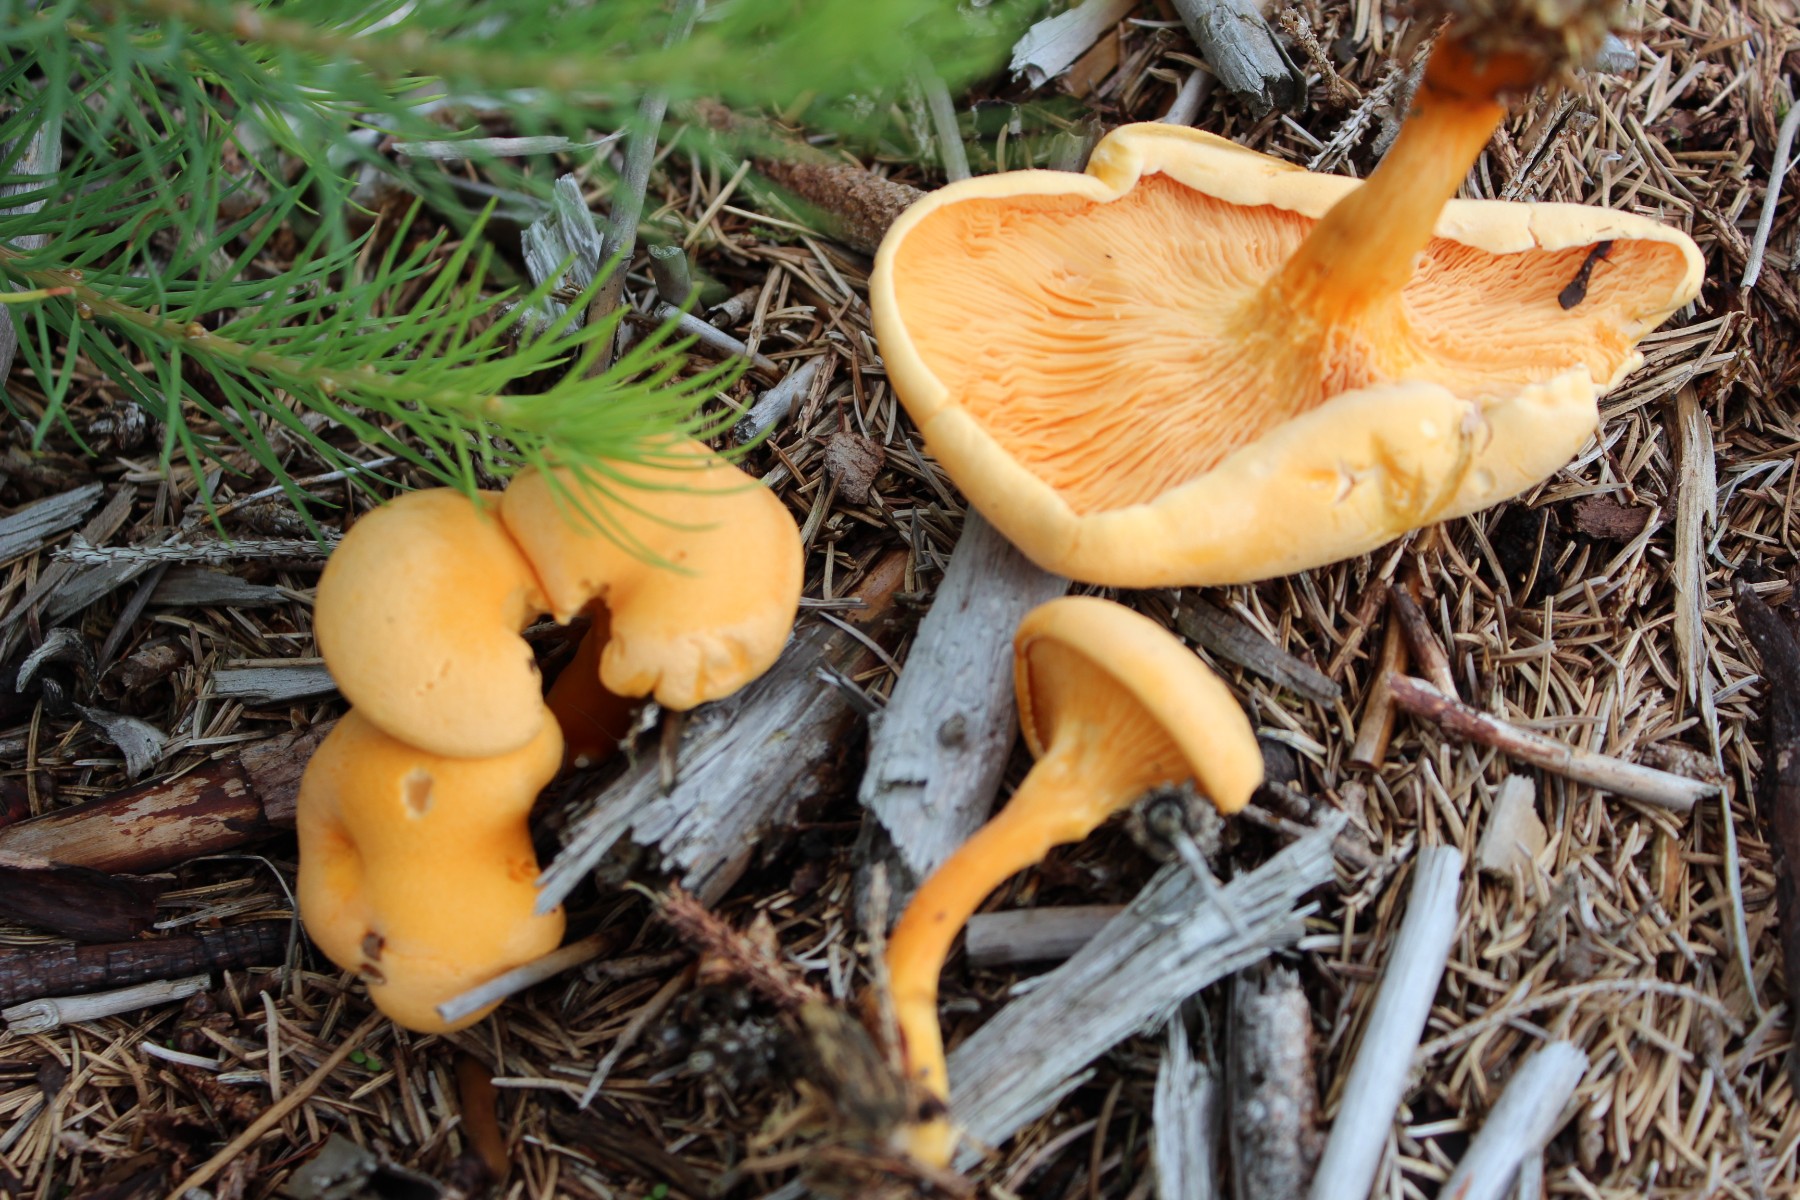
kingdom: Fungi
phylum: Basidiomycota
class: Agaricomycetes
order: Boletales
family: Hygrophoropsidaceae
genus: Hygrophoropsis
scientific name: Hygrophoropsis aurantiaca
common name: almindelig orangekantarel
